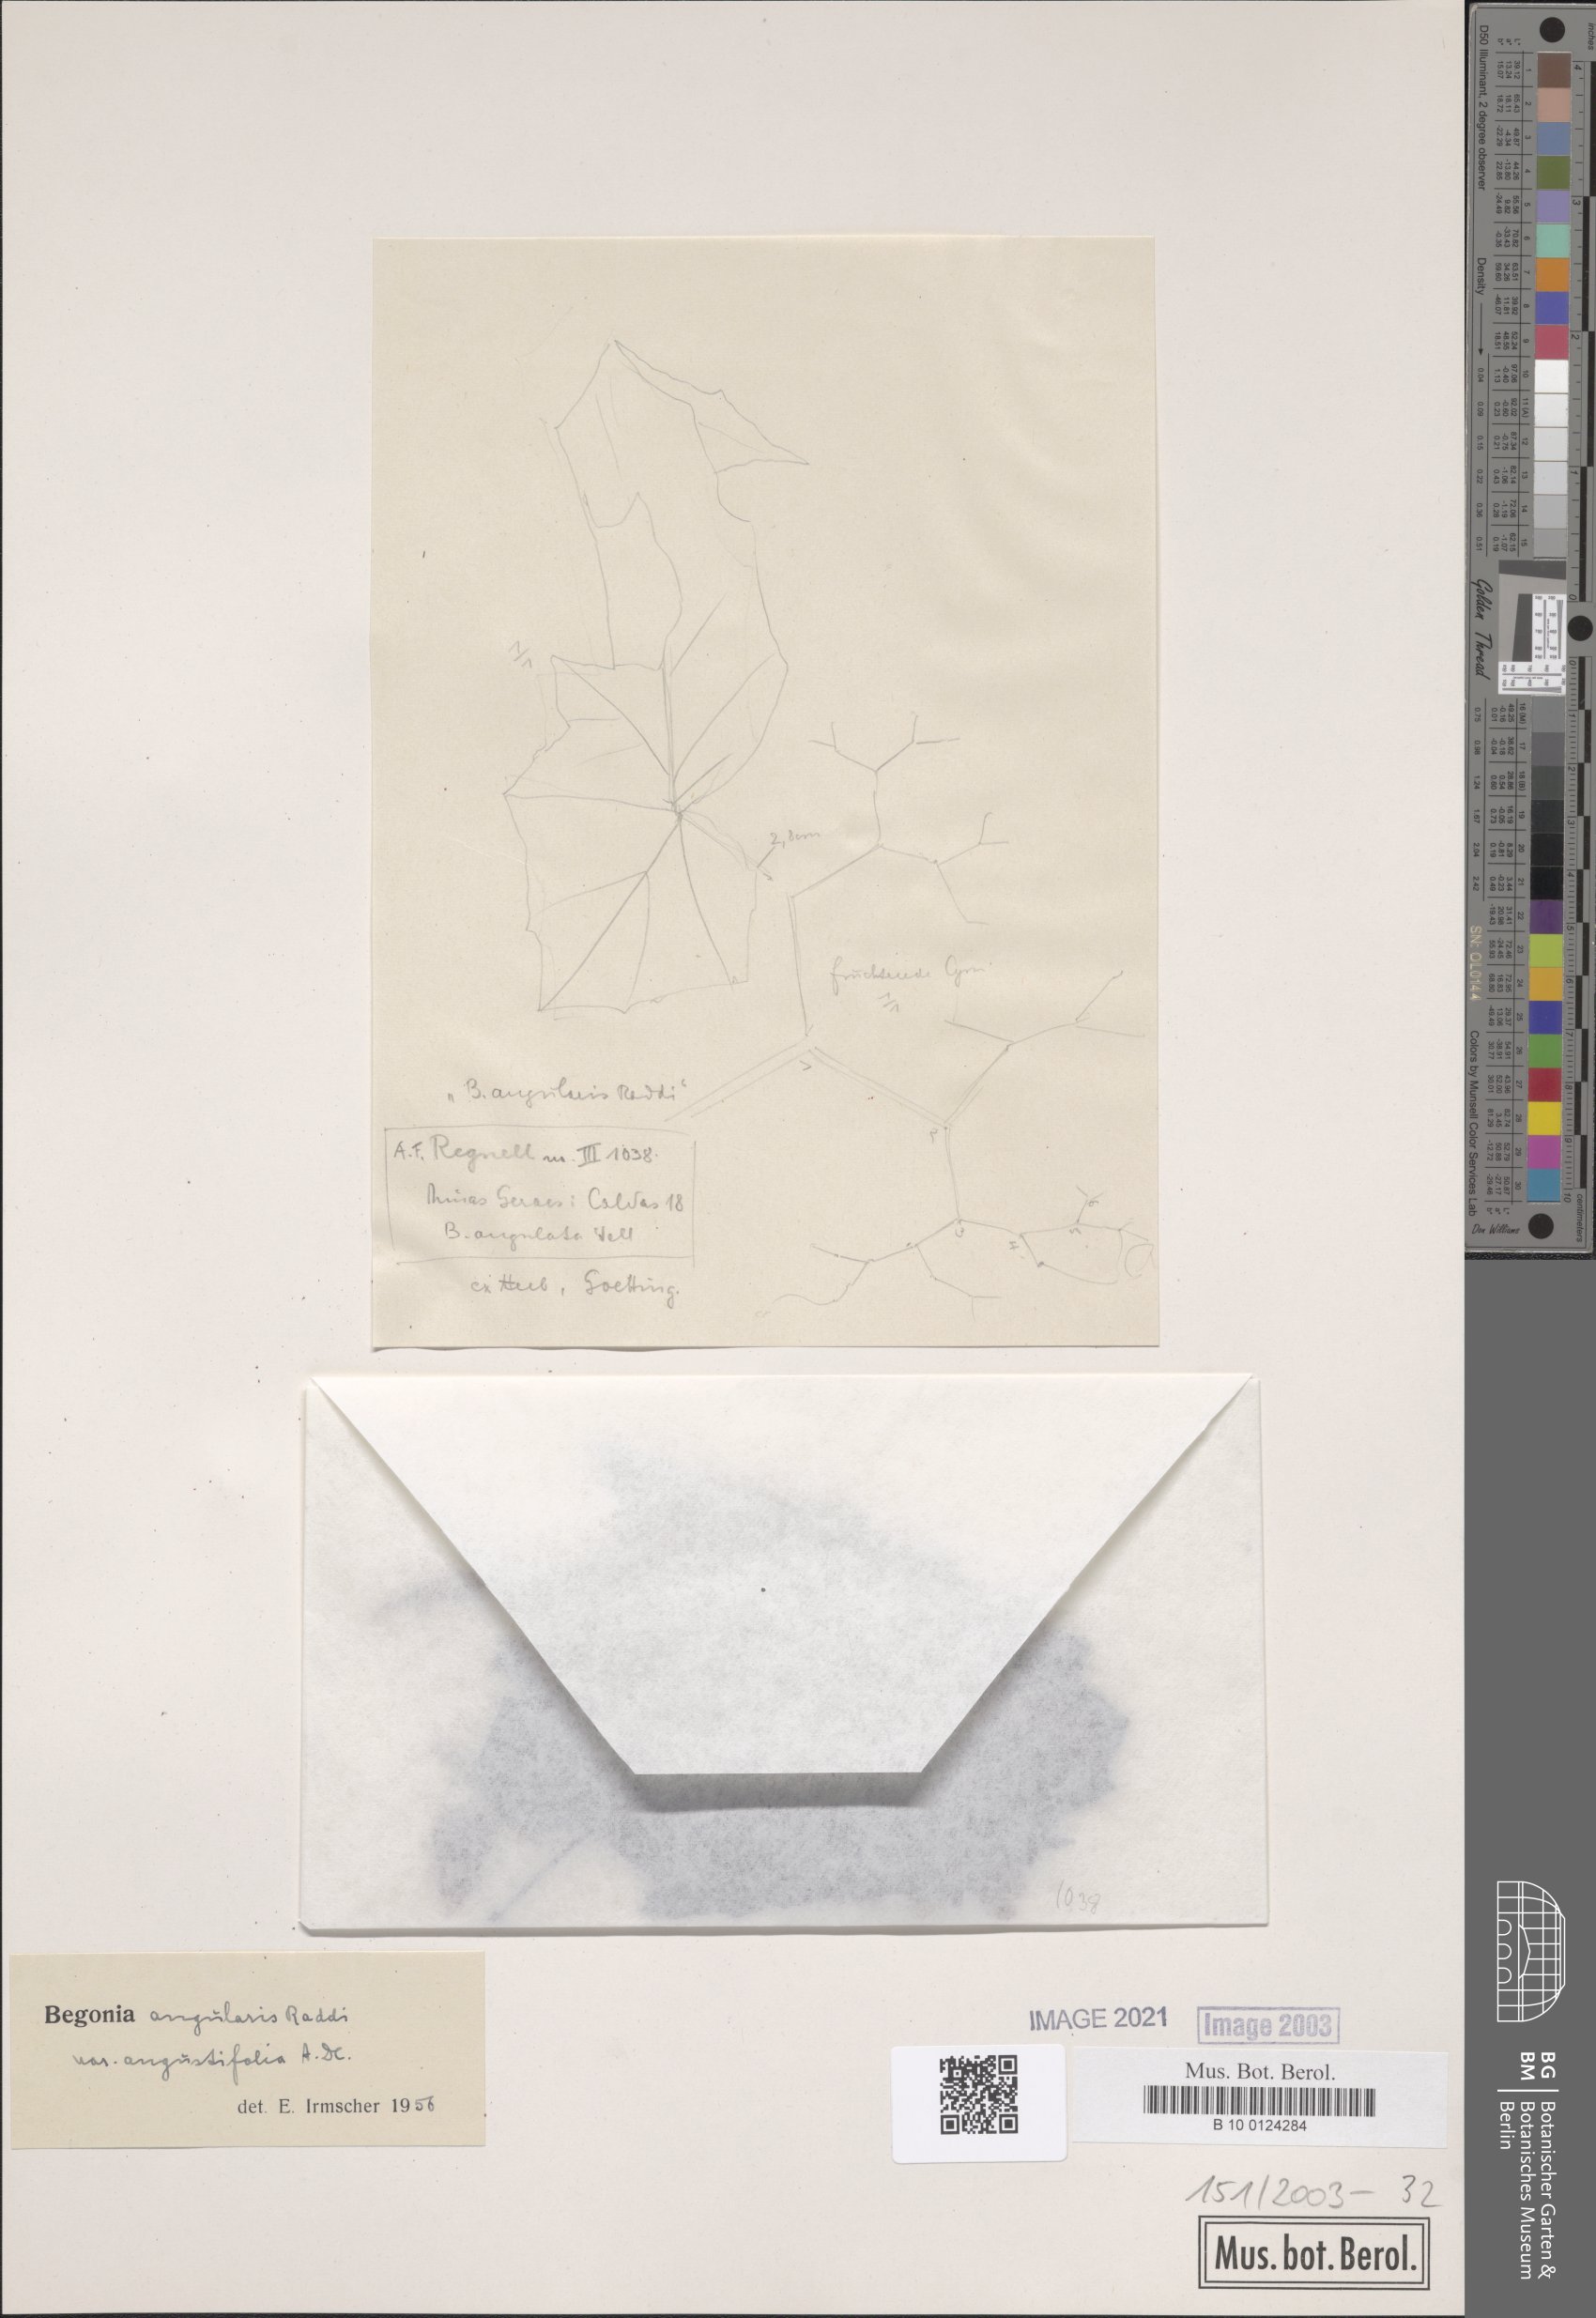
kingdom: Plantae
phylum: Tracheophyta
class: Magnoliopsida
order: Cucurbitales
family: Begoniaceae
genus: Begonia
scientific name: Begonia angularis
